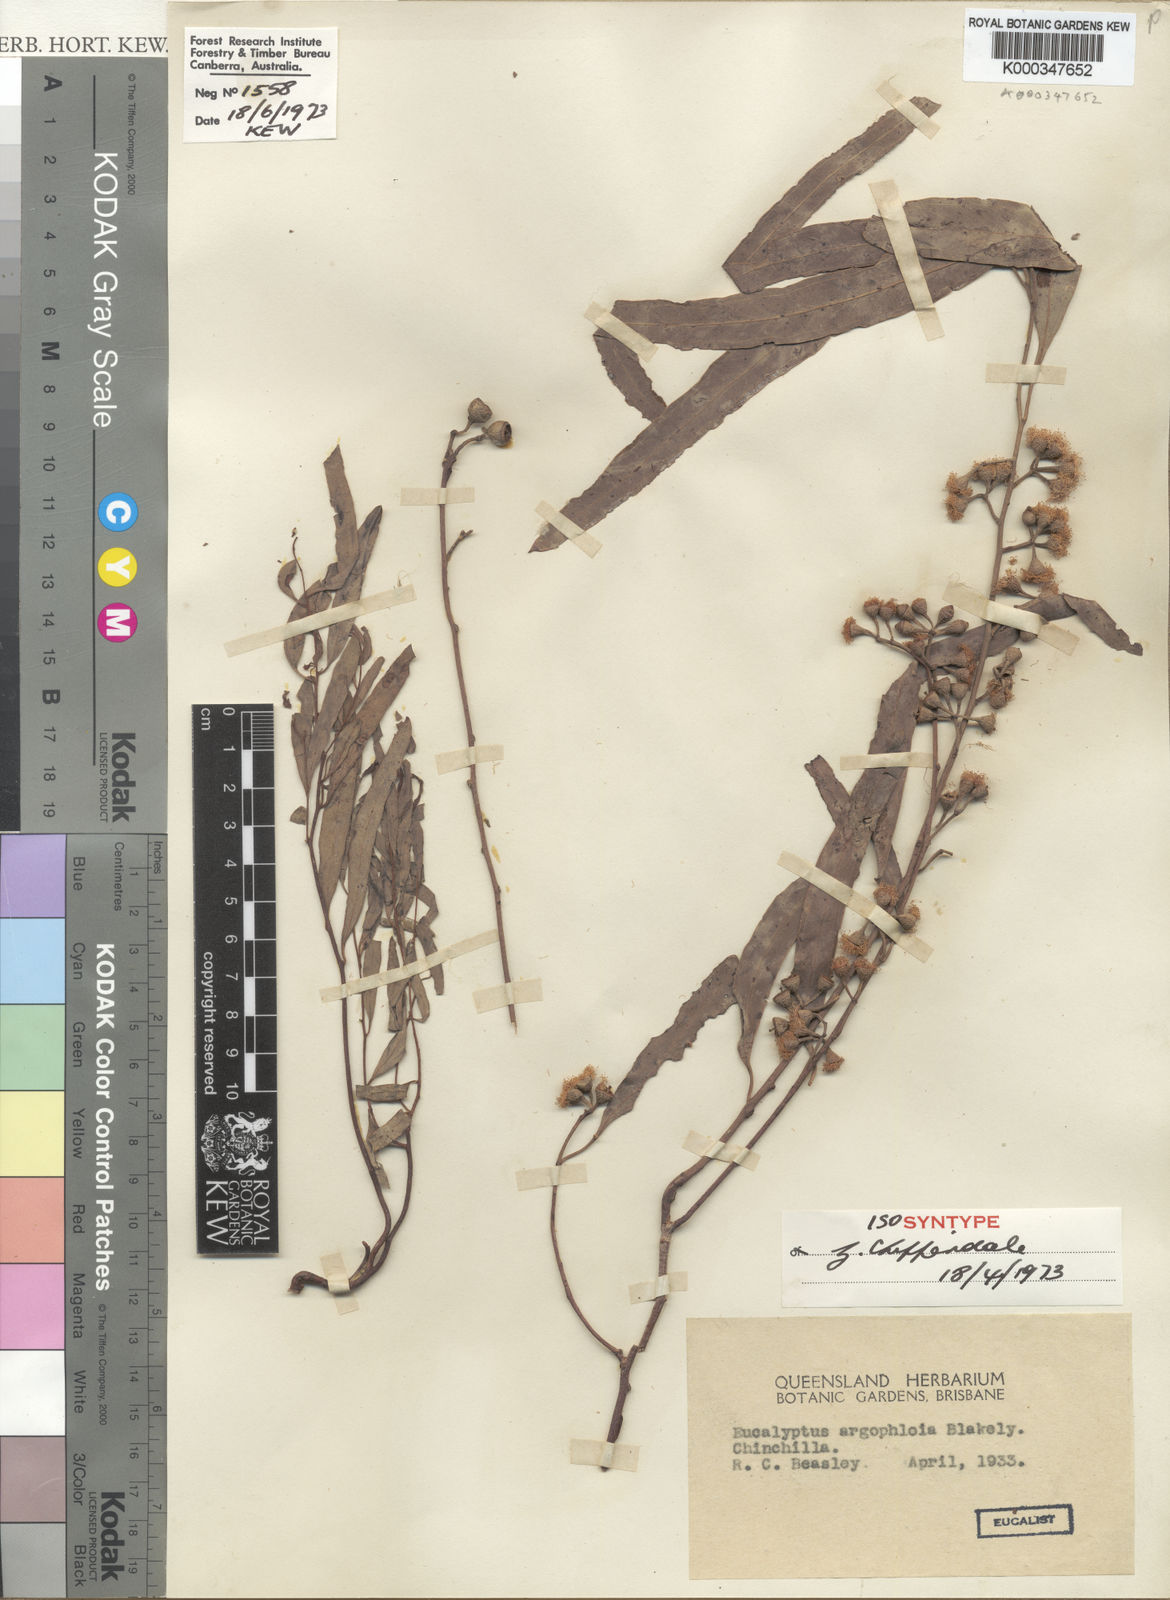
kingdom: Plantae
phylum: Tracheophyta
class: Magnoliopsida
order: Myrtales
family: Myrtaceae
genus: Eucalyptus
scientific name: Eucalyptus argophloia
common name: Burncluith gum
